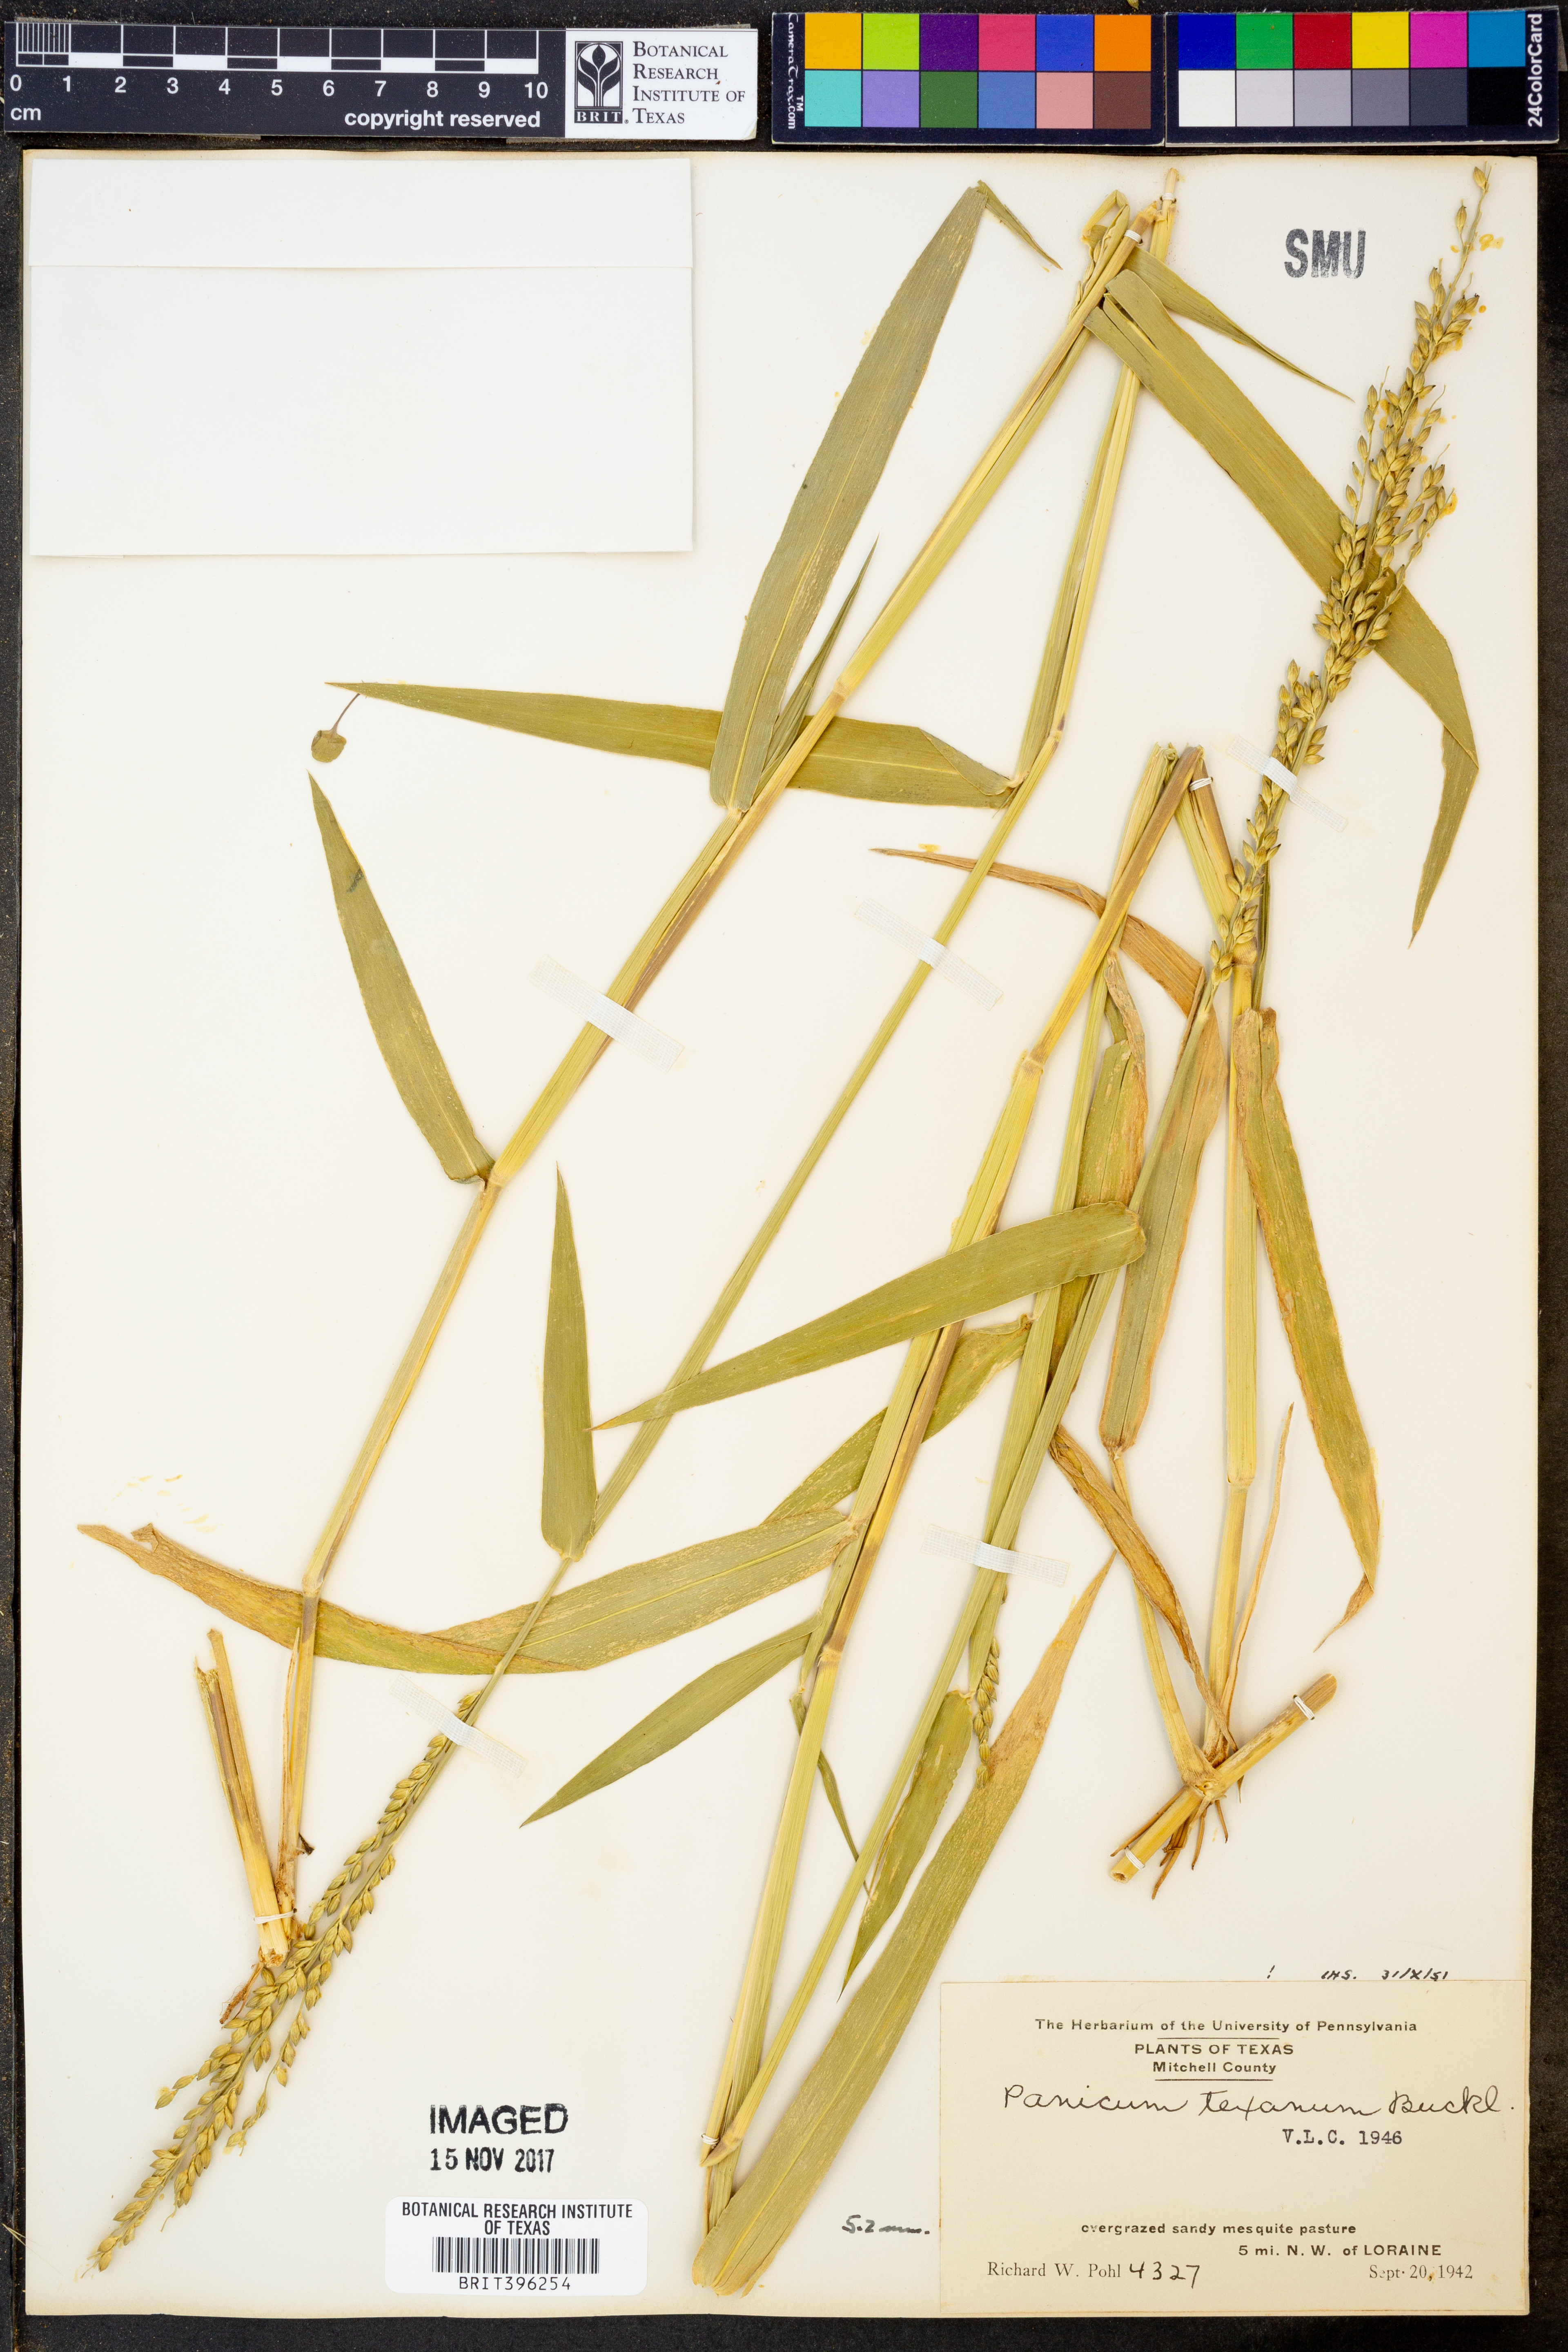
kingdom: Plantae
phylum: Tracheophyta
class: Liliopsida
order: Poales
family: Poaceae
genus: Urochloa
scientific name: Urochloa texana
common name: Texas millet
